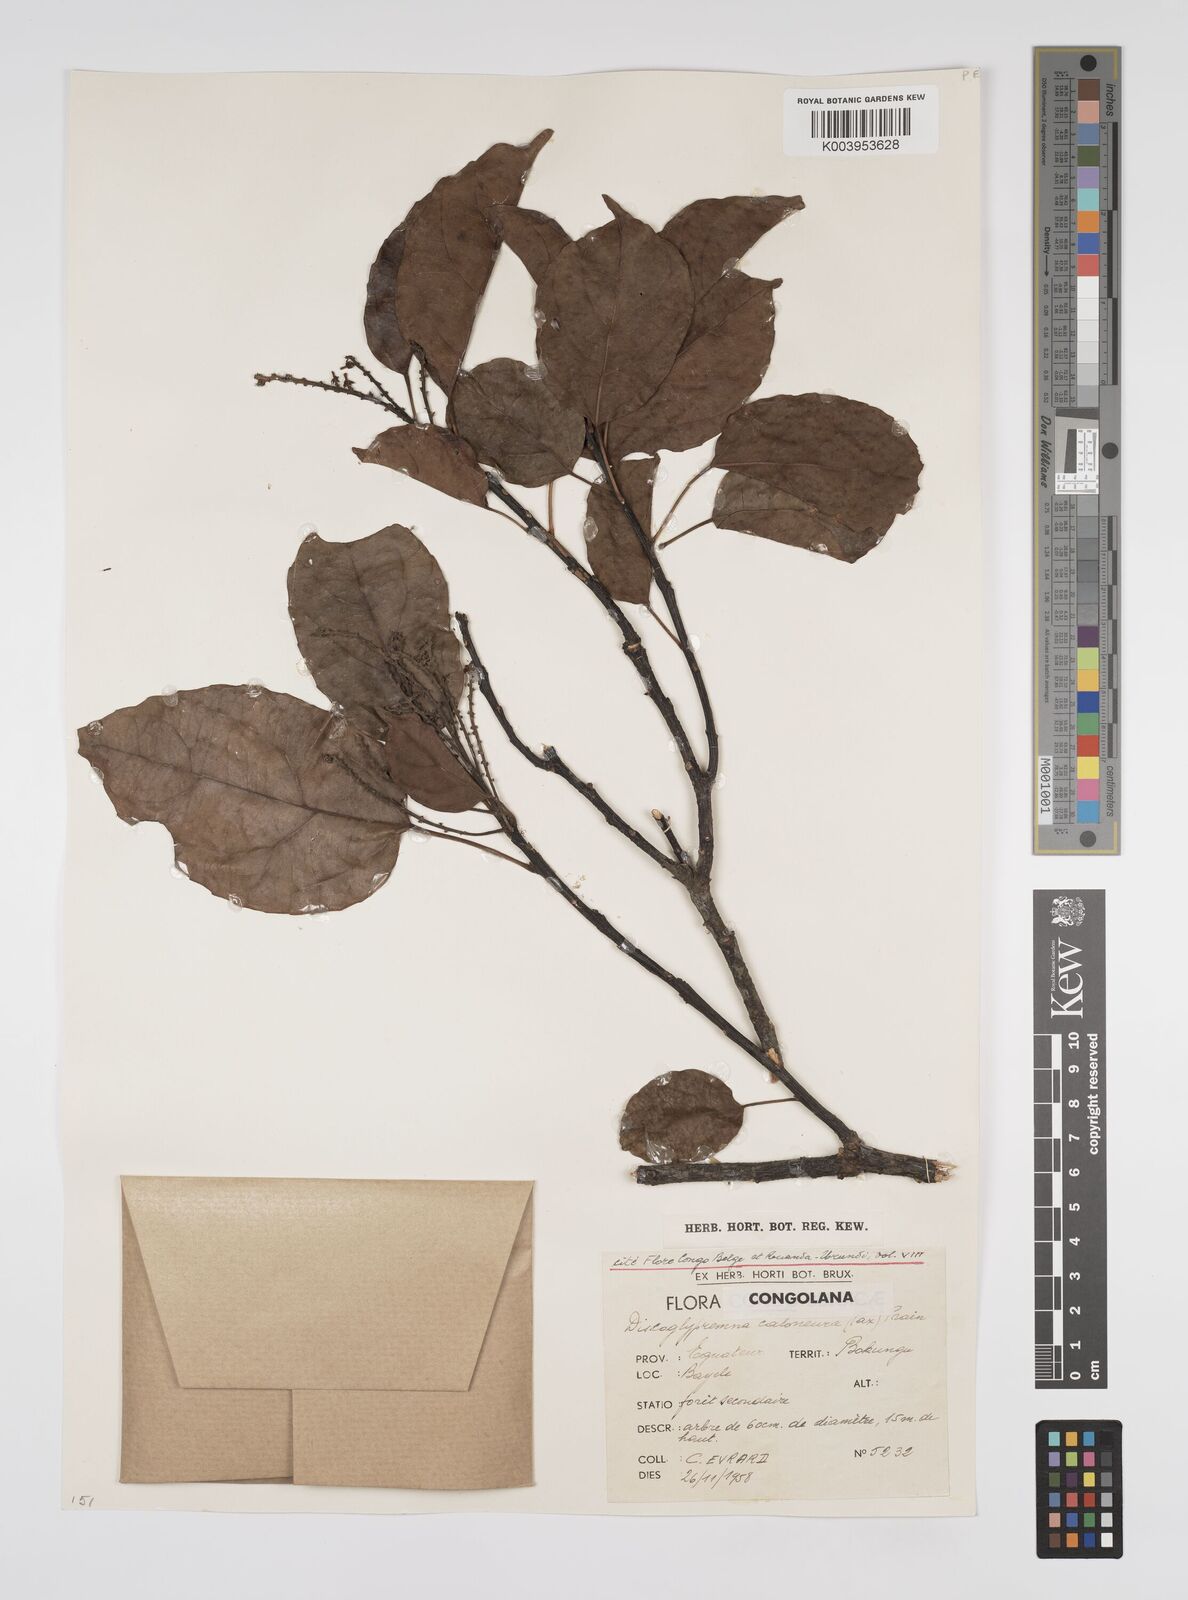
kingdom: Plantae
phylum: Tracheophyta
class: Magnoliopsida
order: Malpighiales
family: Euphorbiaceae
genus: Discoglypremna
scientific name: Discoglypremna caloneura
